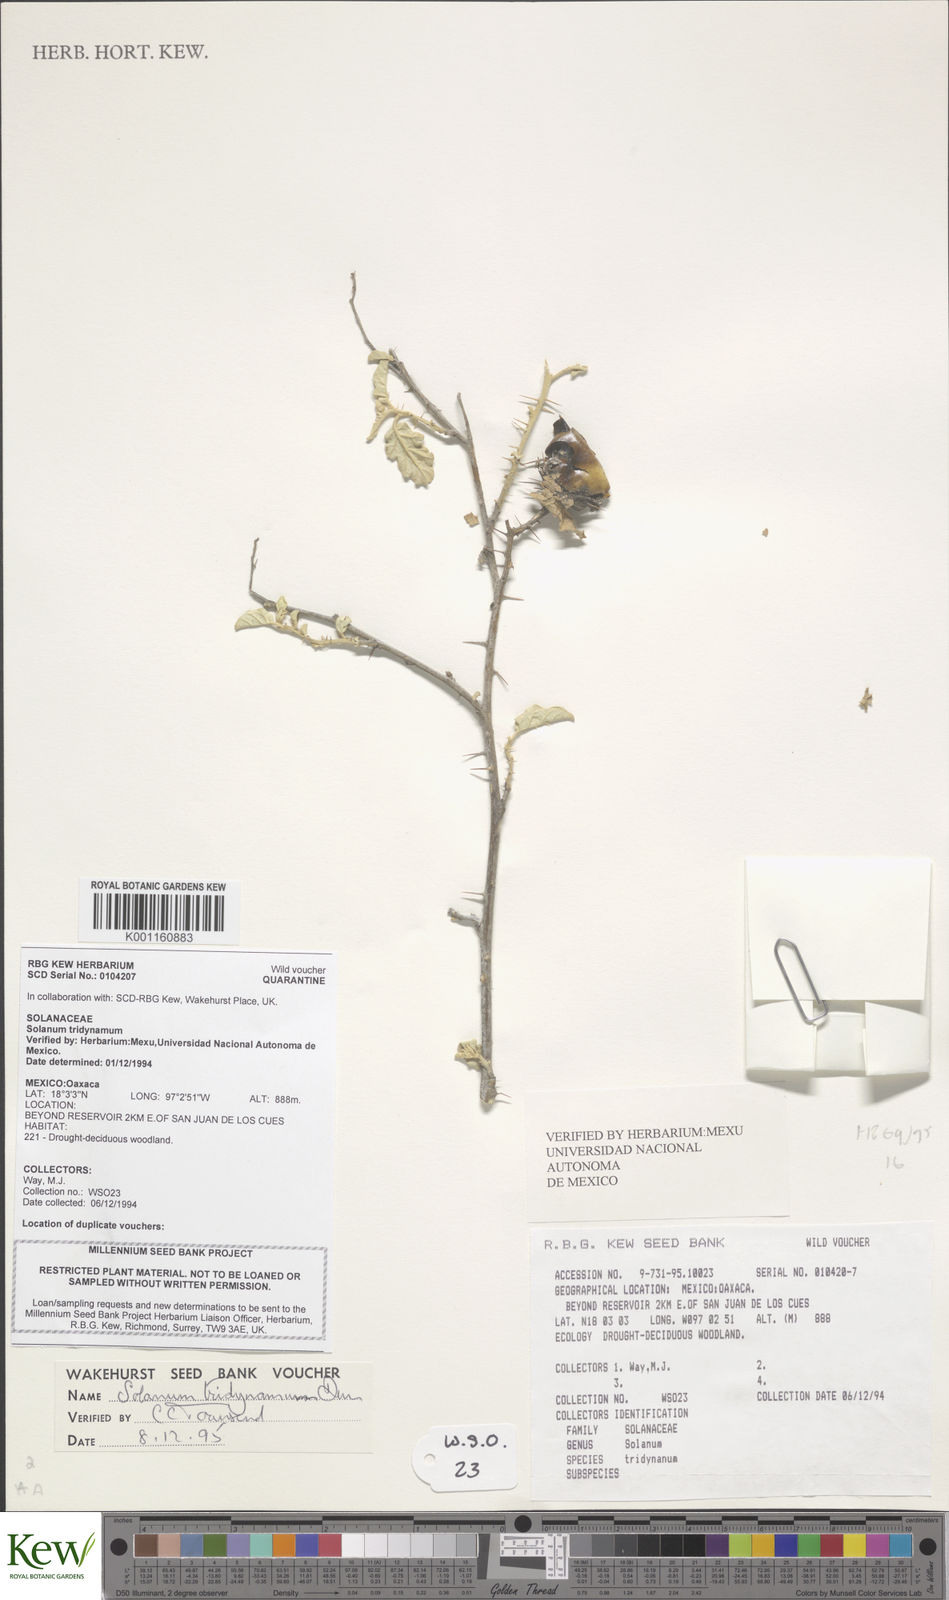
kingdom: Plantae
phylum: Tracheophyta
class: Magnoliopsida
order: Solanales
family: Solanaceae
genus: Solanum
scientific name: Solanum houstonii
